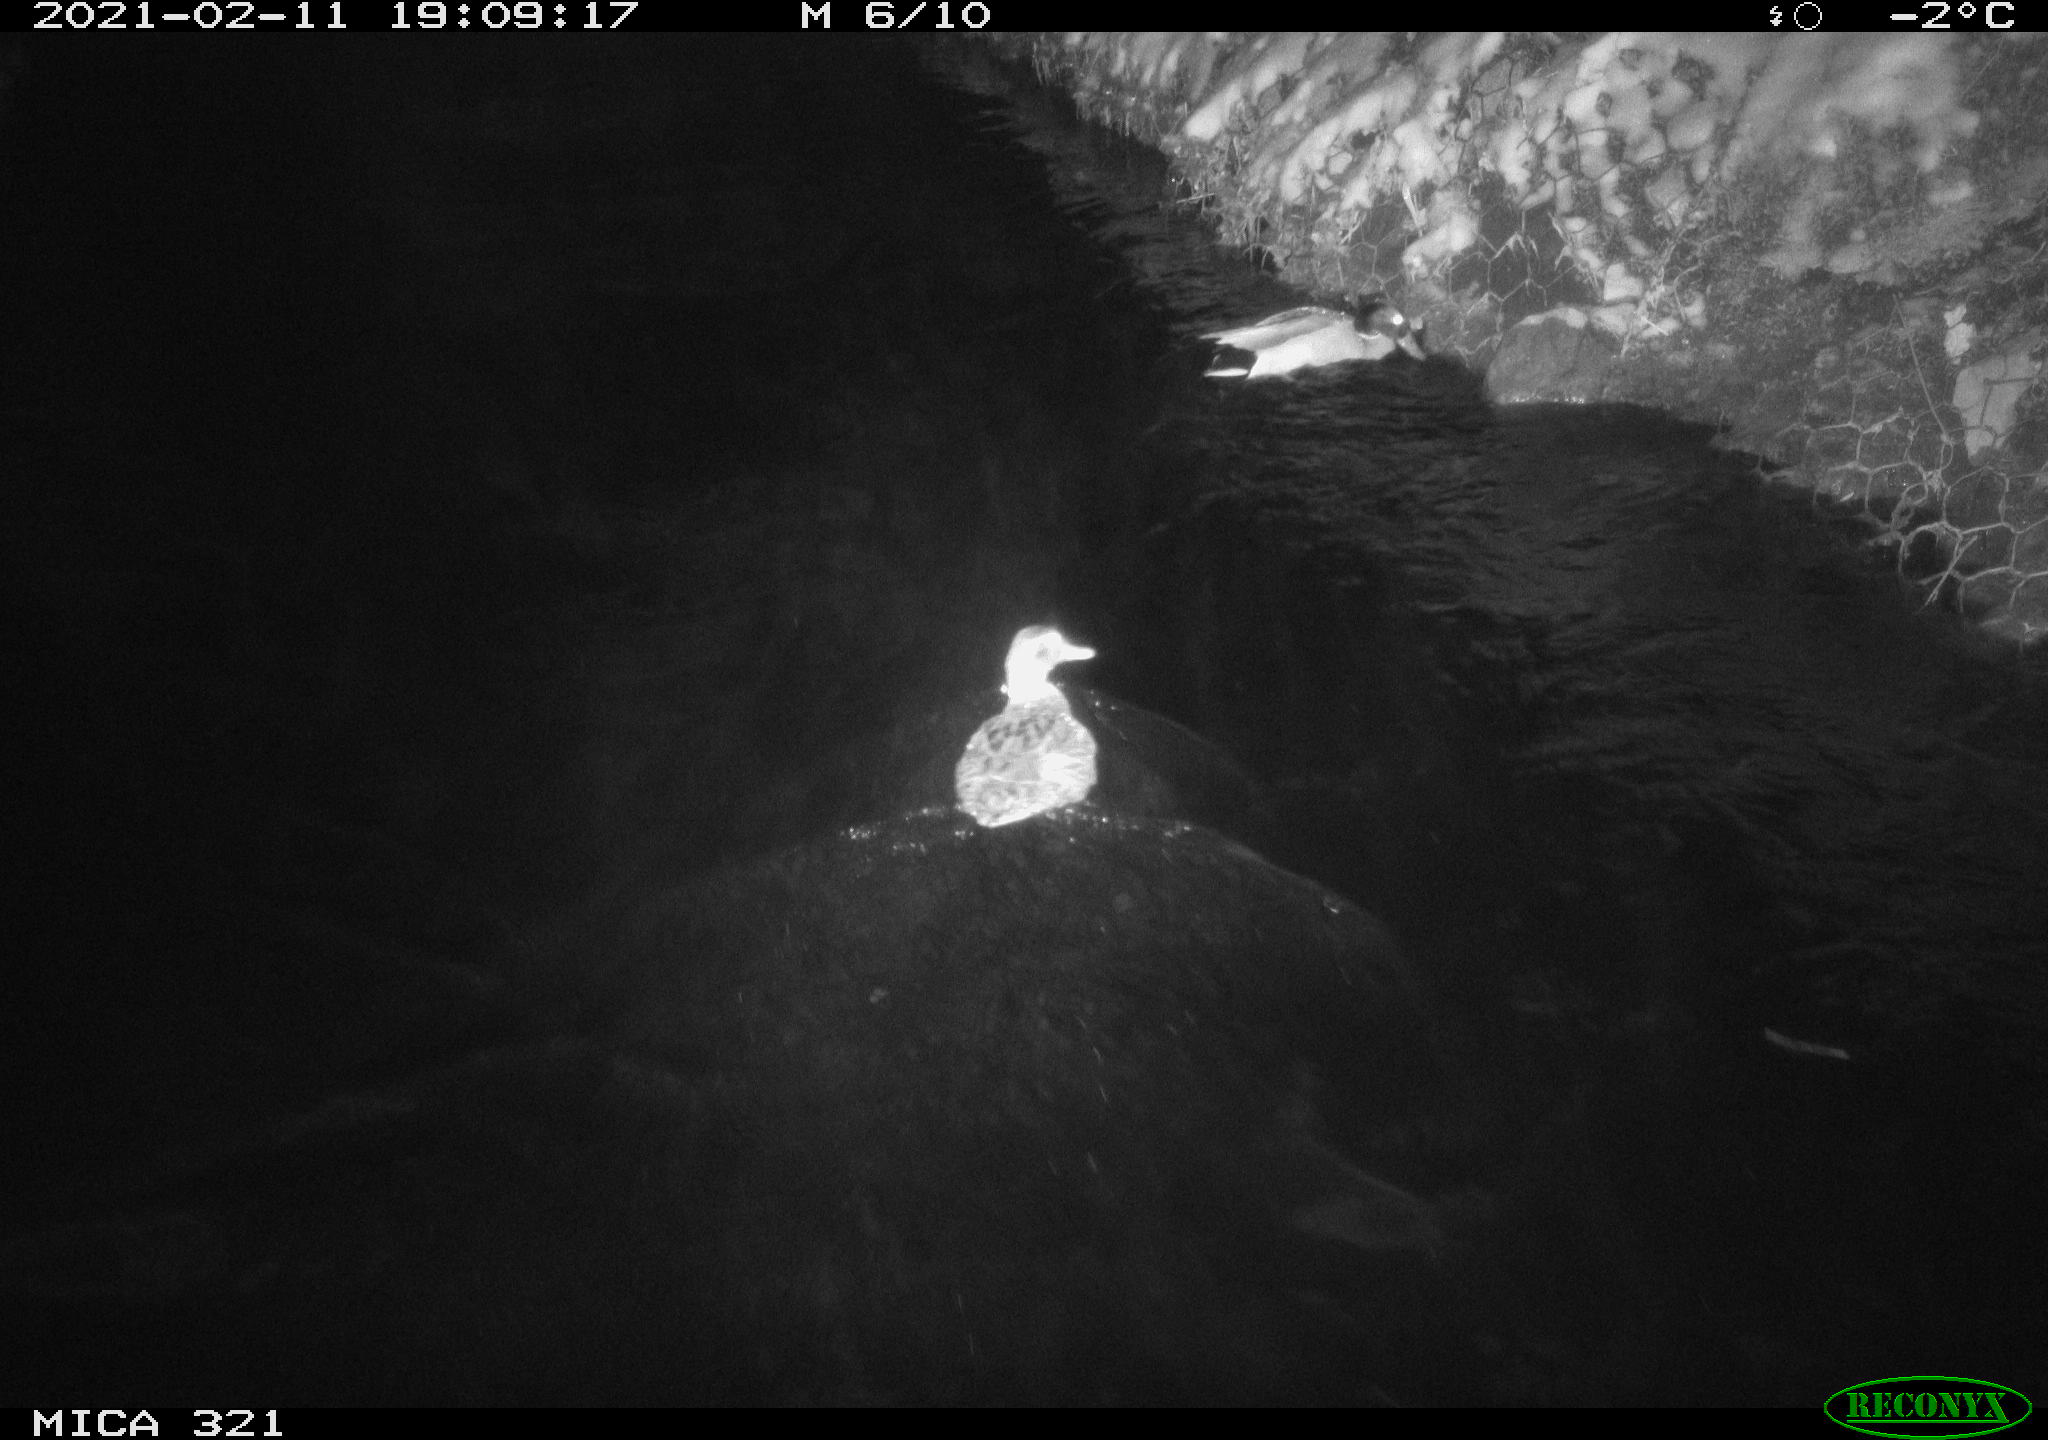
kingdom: Animalia
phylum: Chordata
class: Aves
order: Anseriformes
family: Anatidae
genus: Anas
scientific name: Anas platyrhynchos
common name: Mallard
